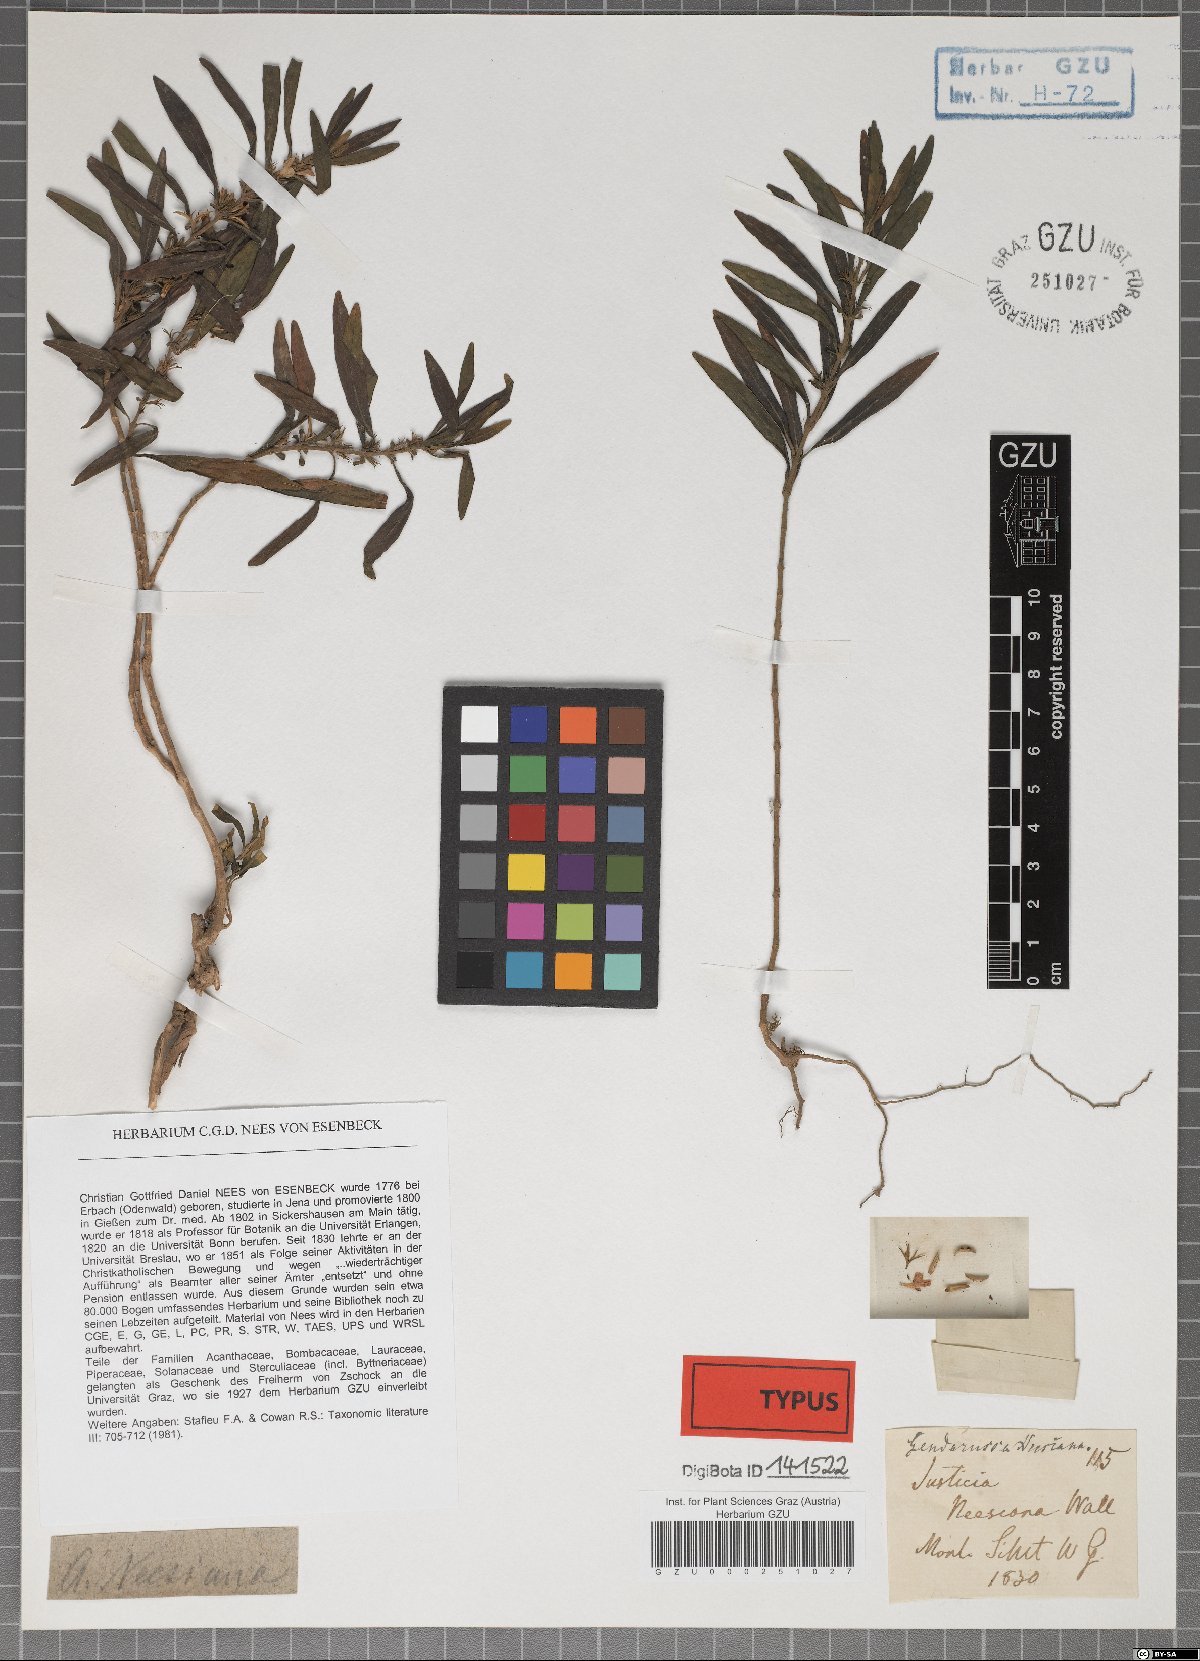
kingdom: Plantae
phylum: Tracheophyta
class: Magnoliopsida
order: Lamiales
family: Acanthaceae
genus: Justicia
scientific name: Justicia neesiana
